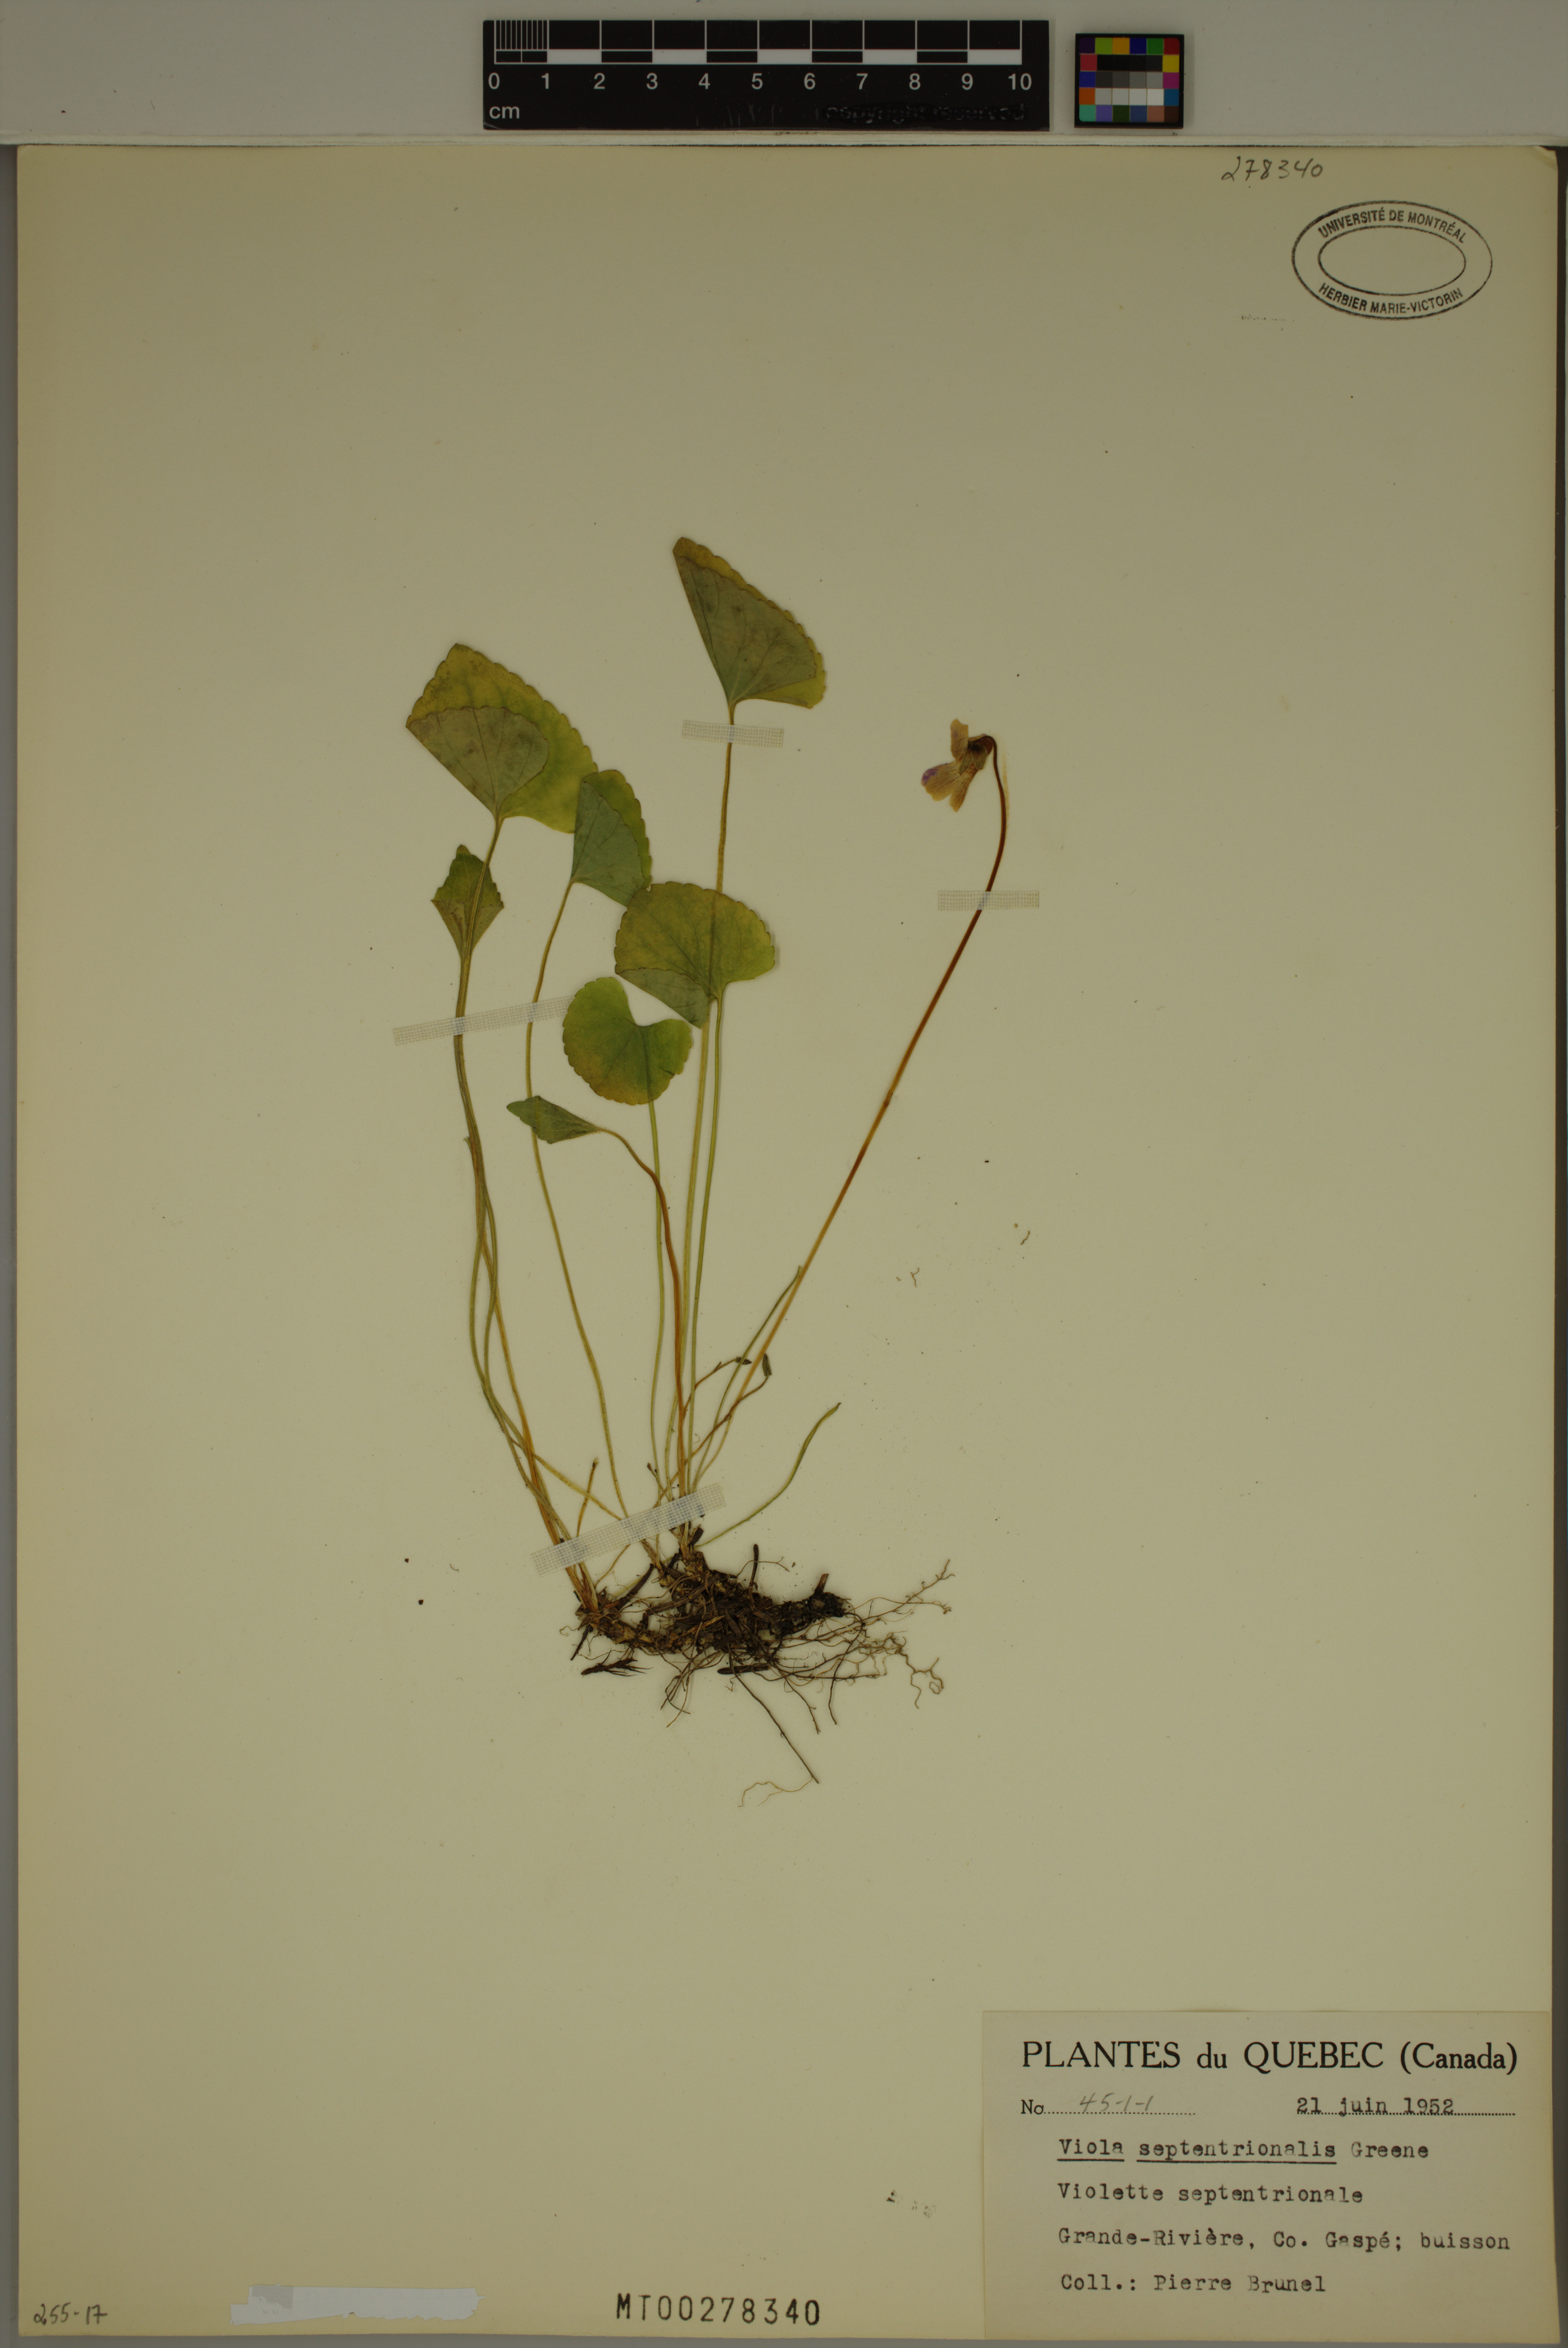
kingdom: Plantae
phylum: Tracheophyta
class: Magnoliopsida
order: Malpighiales
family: Violaceae
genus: Viola
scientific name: Viola septentrionalis
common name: Northern woodland violet
